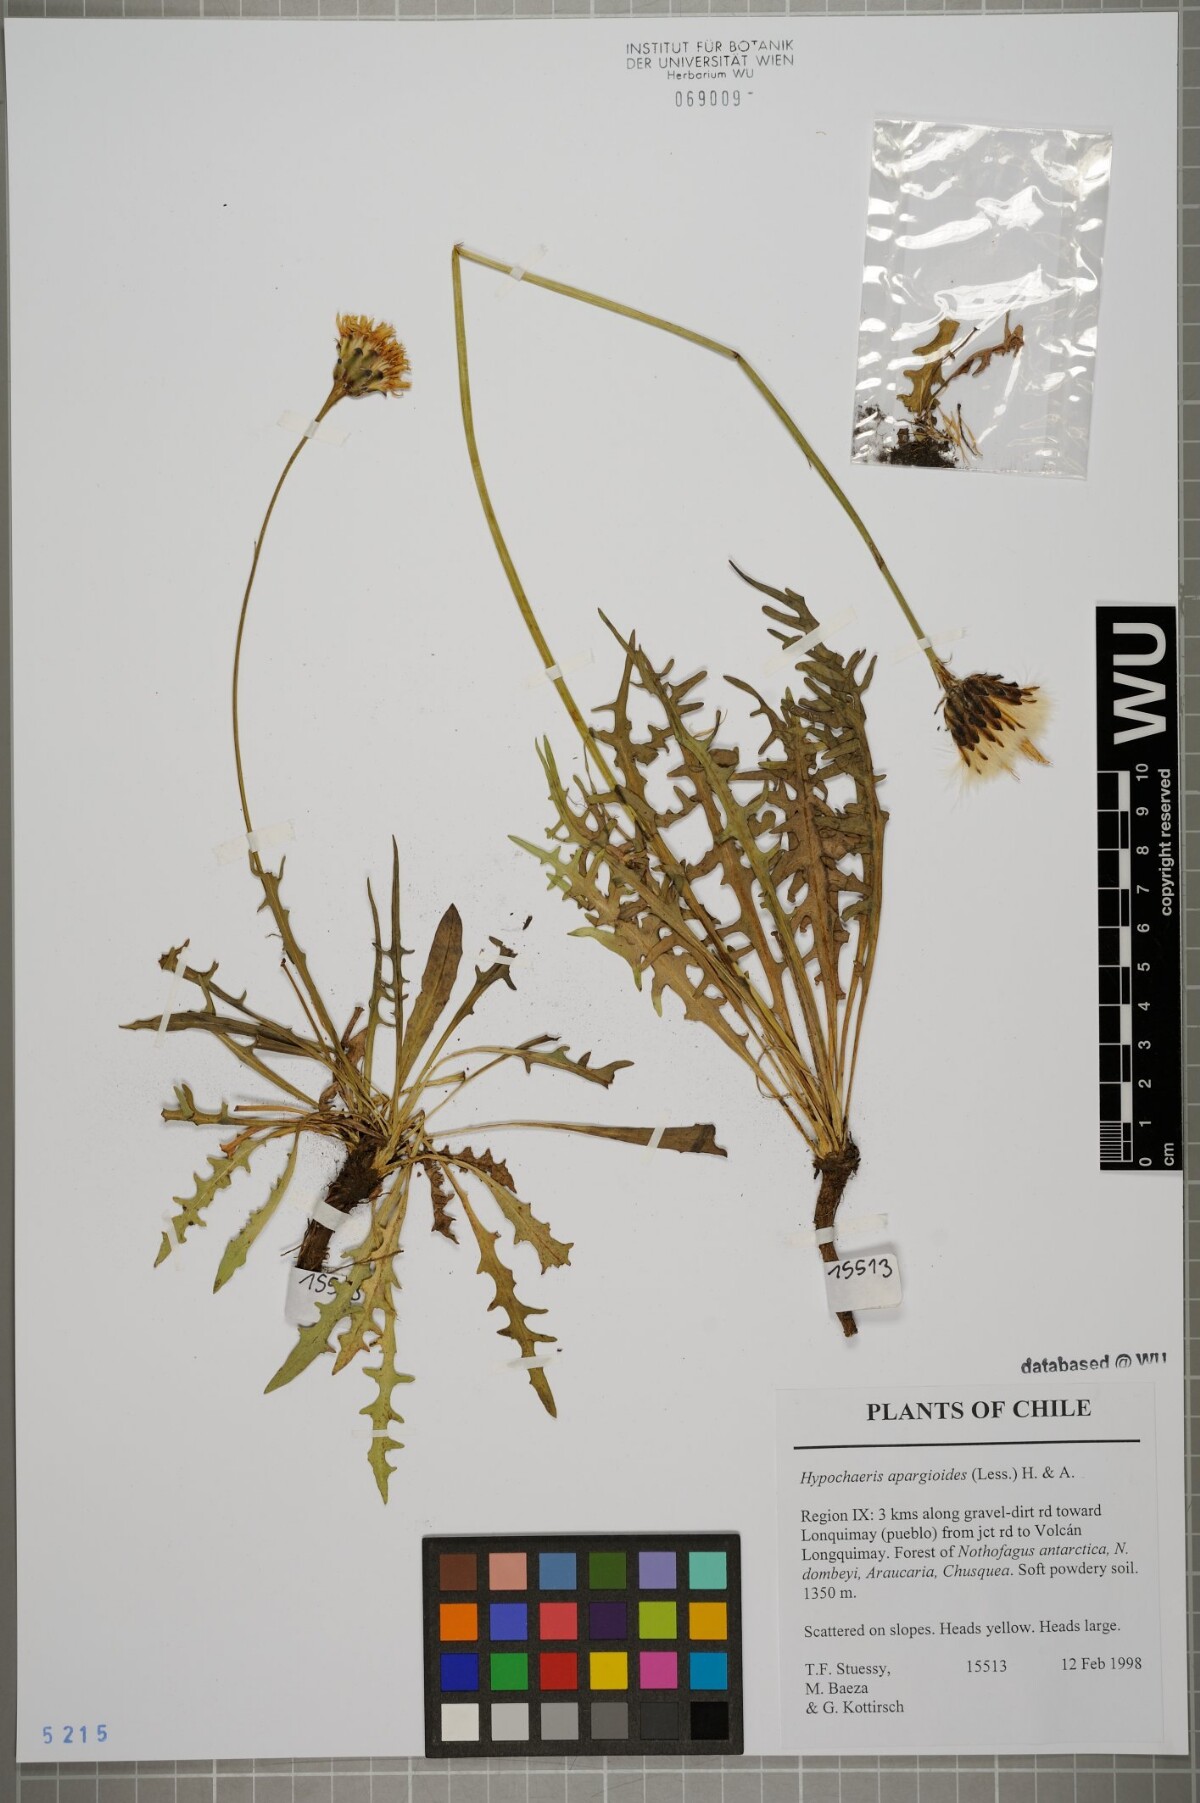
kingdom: Plantae
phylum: Tracheophyta
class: Magnoliopsida
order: Asterales
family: Asteraceae
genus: Hypochaeris
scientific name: Hypochaeris apargioides
